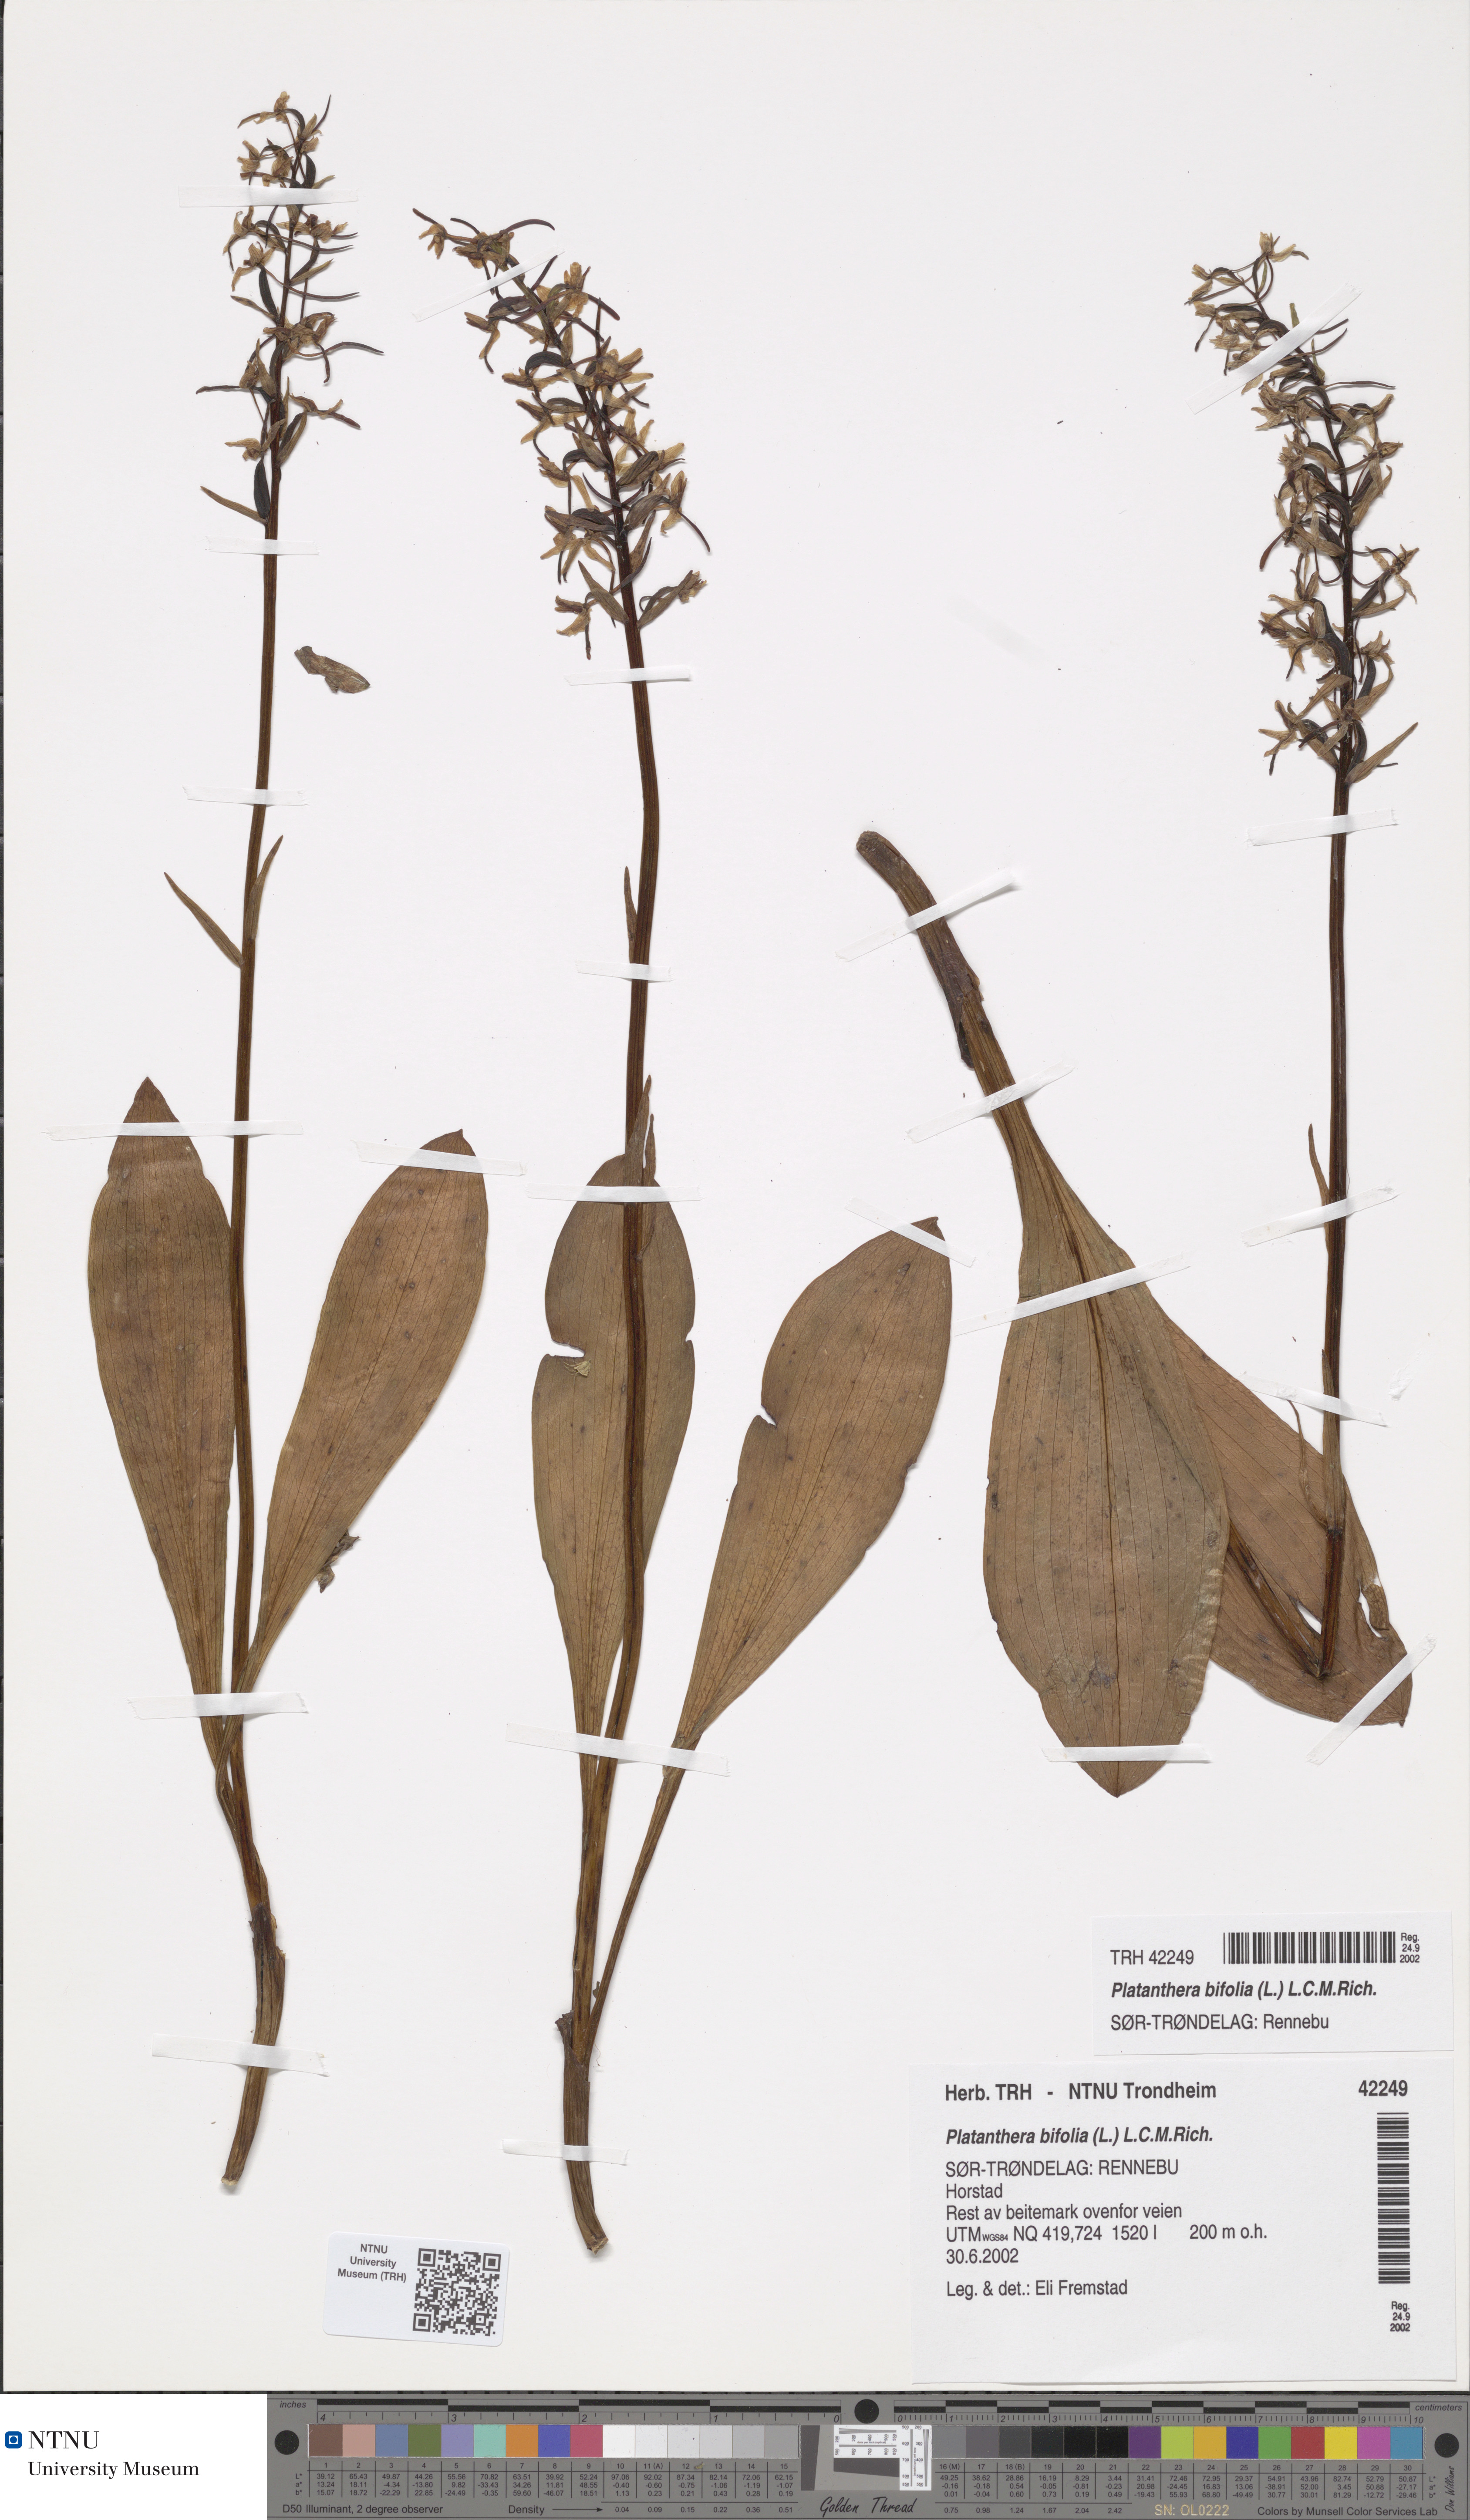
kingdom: Plantae
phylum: Tracheophyta
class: Liliopsida
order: Asparagales
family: Orchidaceae
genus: Platanthera
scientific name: Platanthera bifolia
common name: Lesser butterfly-orchid
